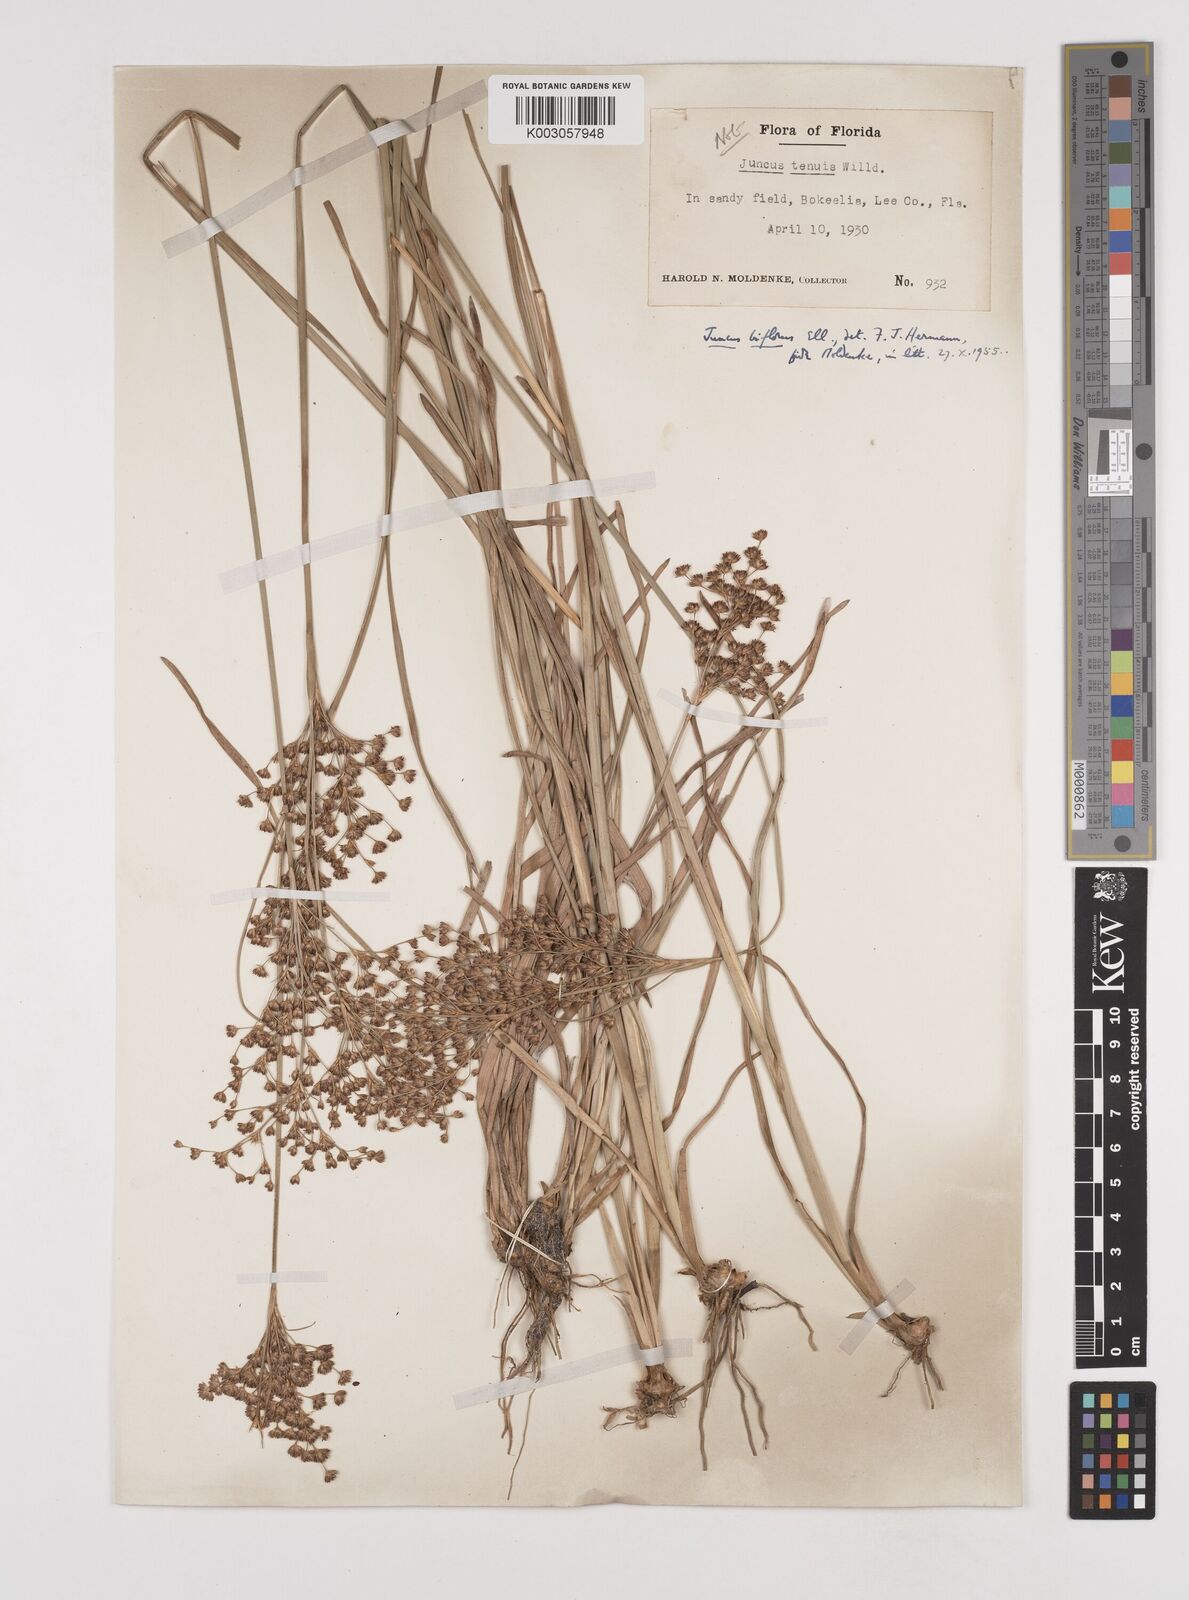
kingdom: Plantae
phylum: Tracheophyta
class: Liliopsida
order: Poales
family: Juncaceae
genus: Juncus
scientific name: Juncus marginatus
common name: Grass-leaf rush
